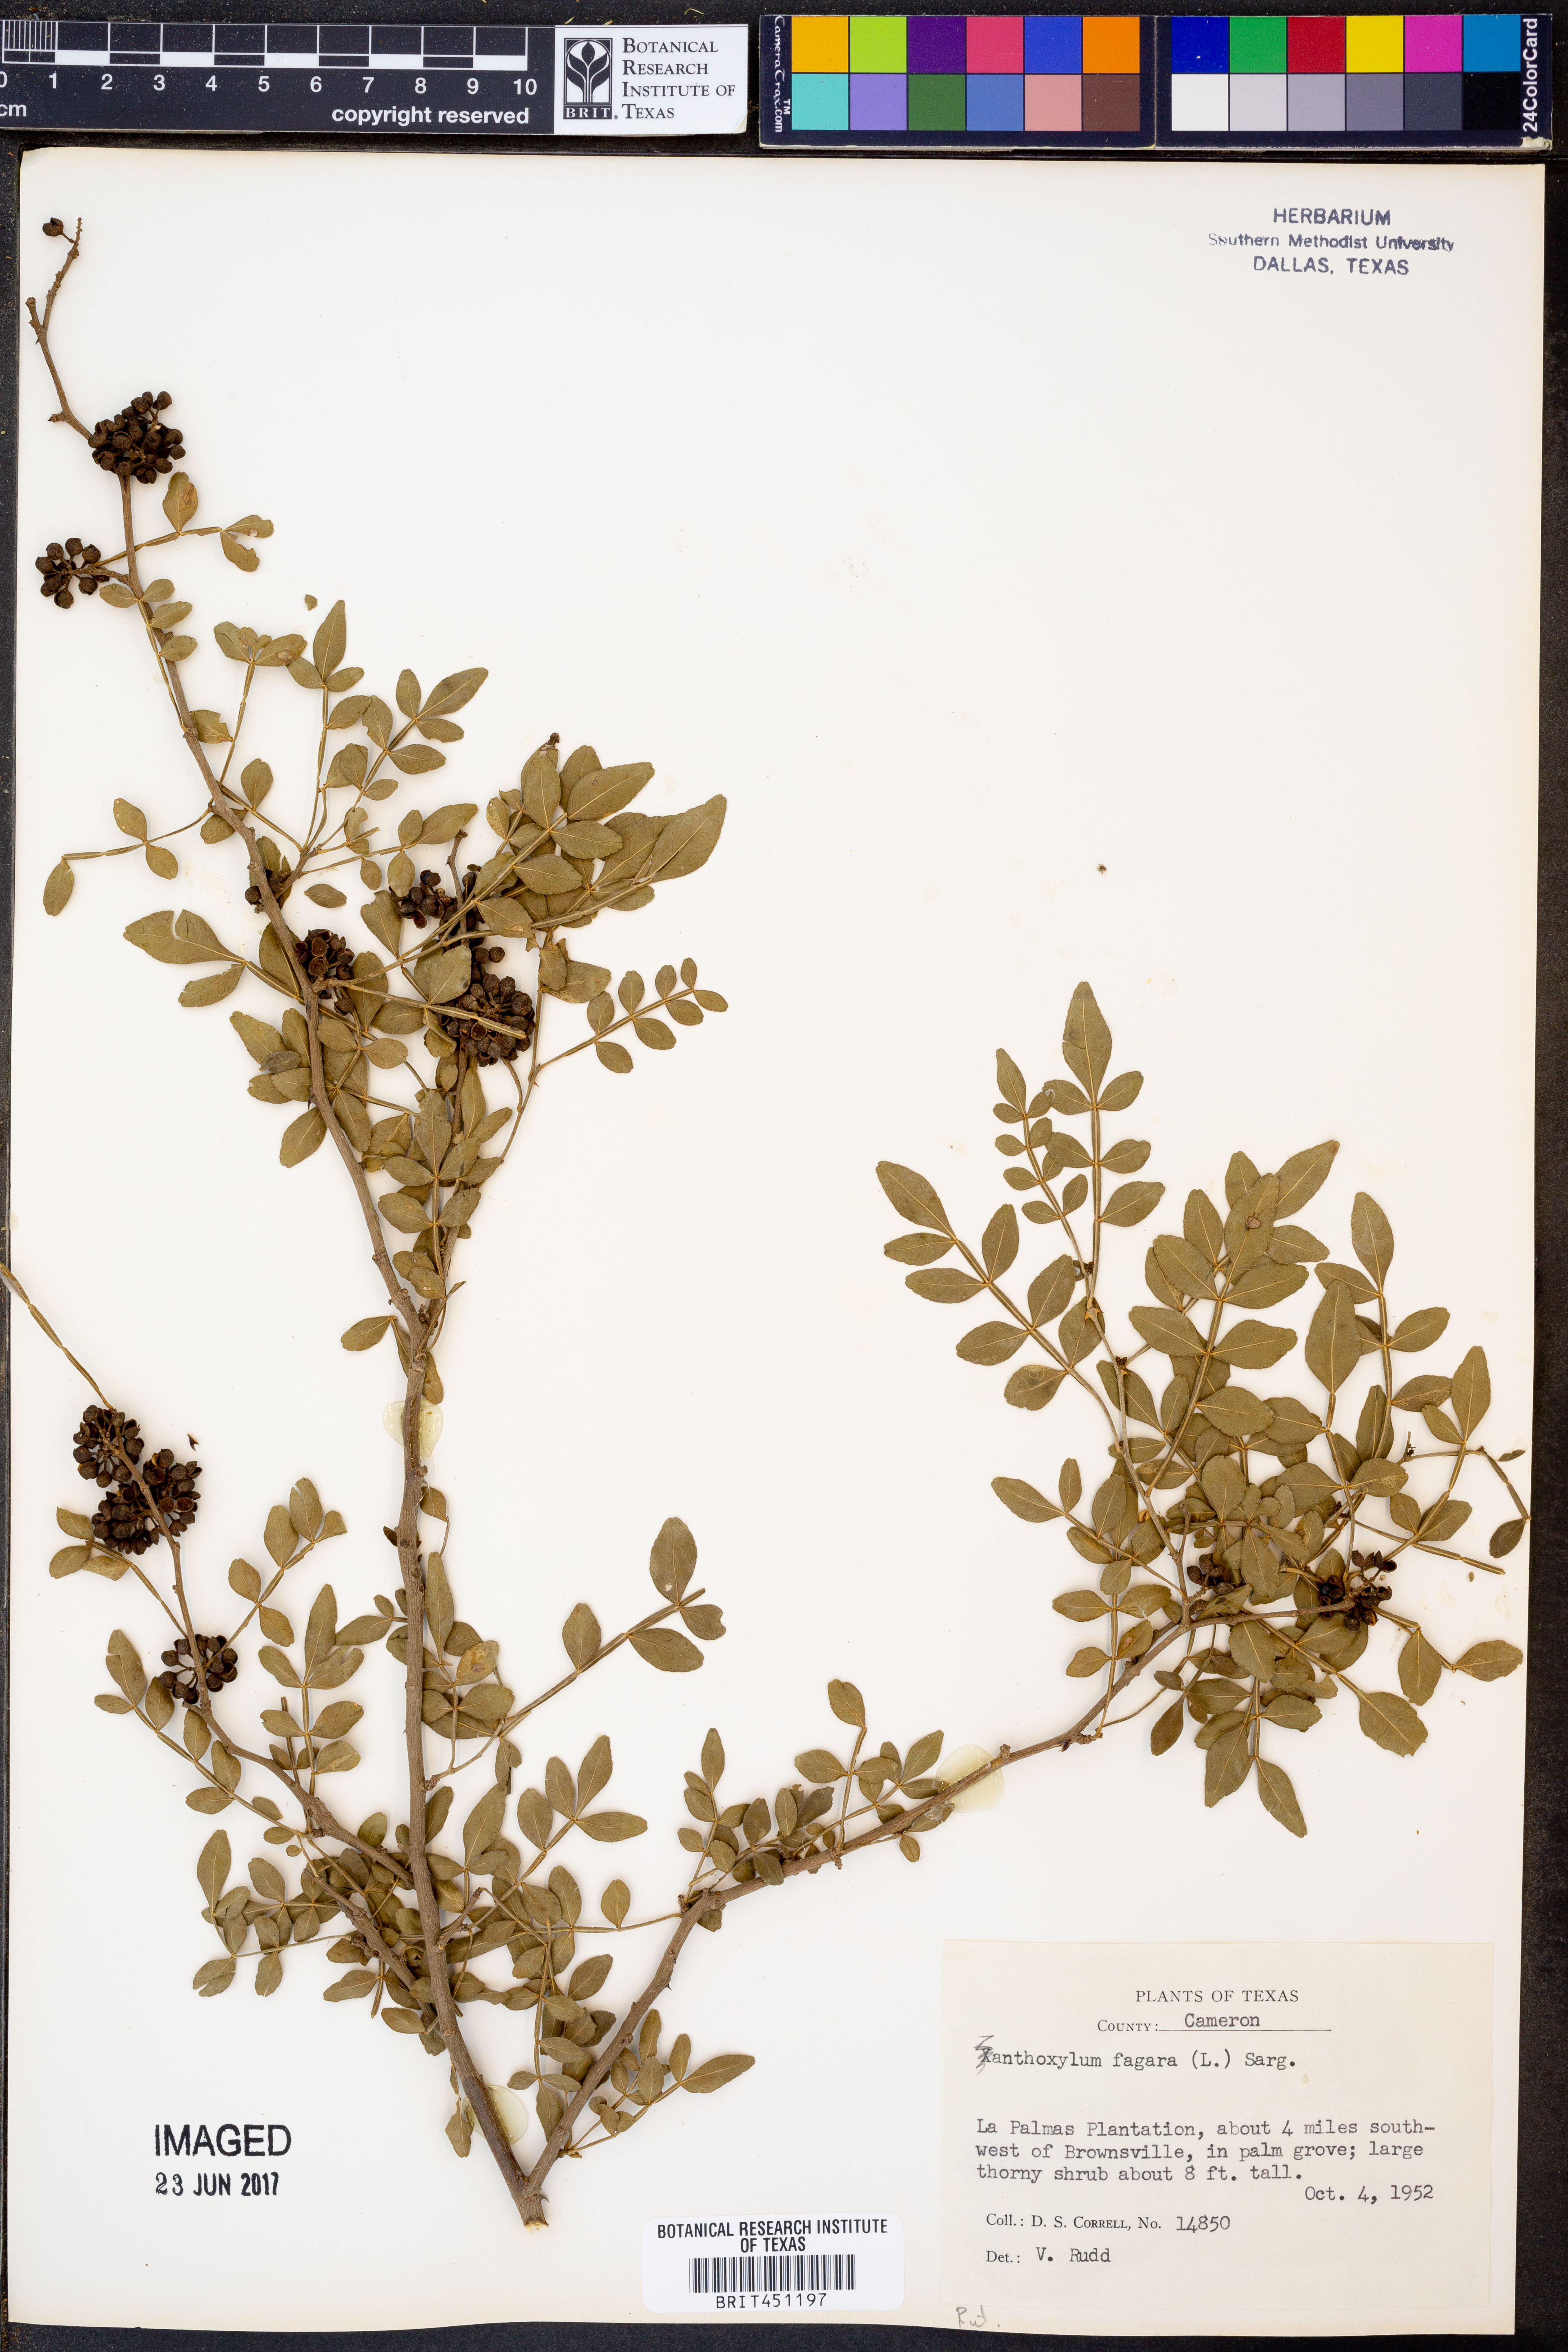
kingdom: Plantae
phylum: Tracheophyta
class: Magnoliopsida
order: Sapindales
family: Rutaceae
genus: Zanthoxylum
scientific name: Zanthoxylum fagara
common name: Lime prickly-ash
